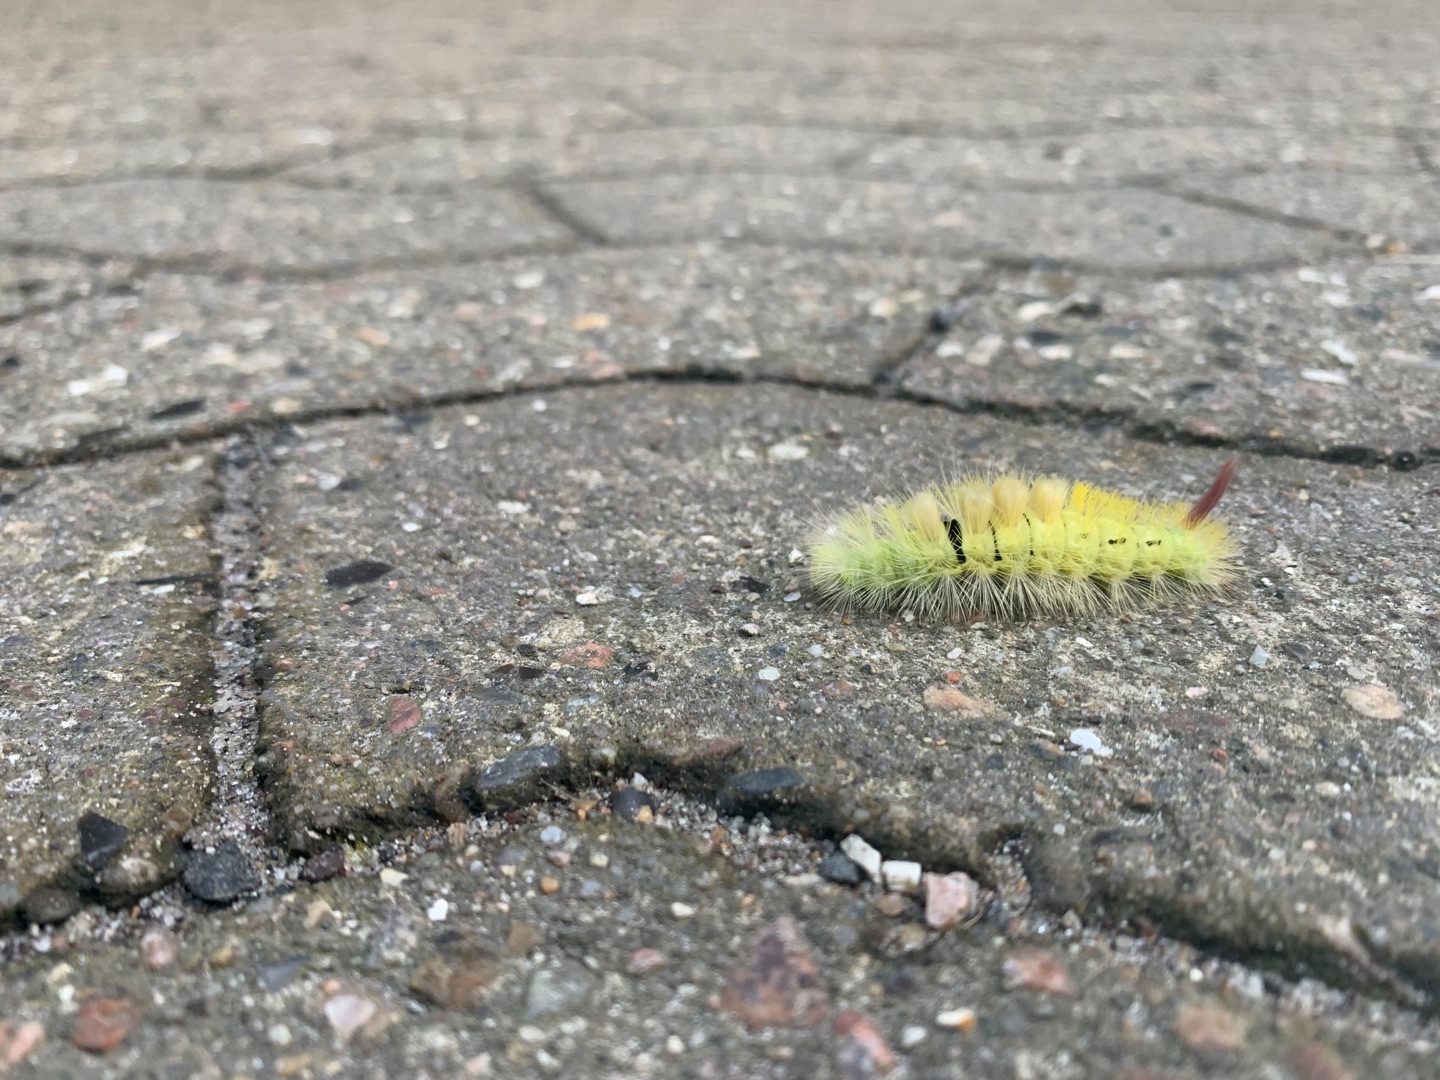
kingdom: Animalia
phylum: Arthropoda
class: Insecta
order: Lepidoptera
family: Erebidae
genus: Calliteara
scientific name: Calliteara pudibunda
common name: Bøgenonne
